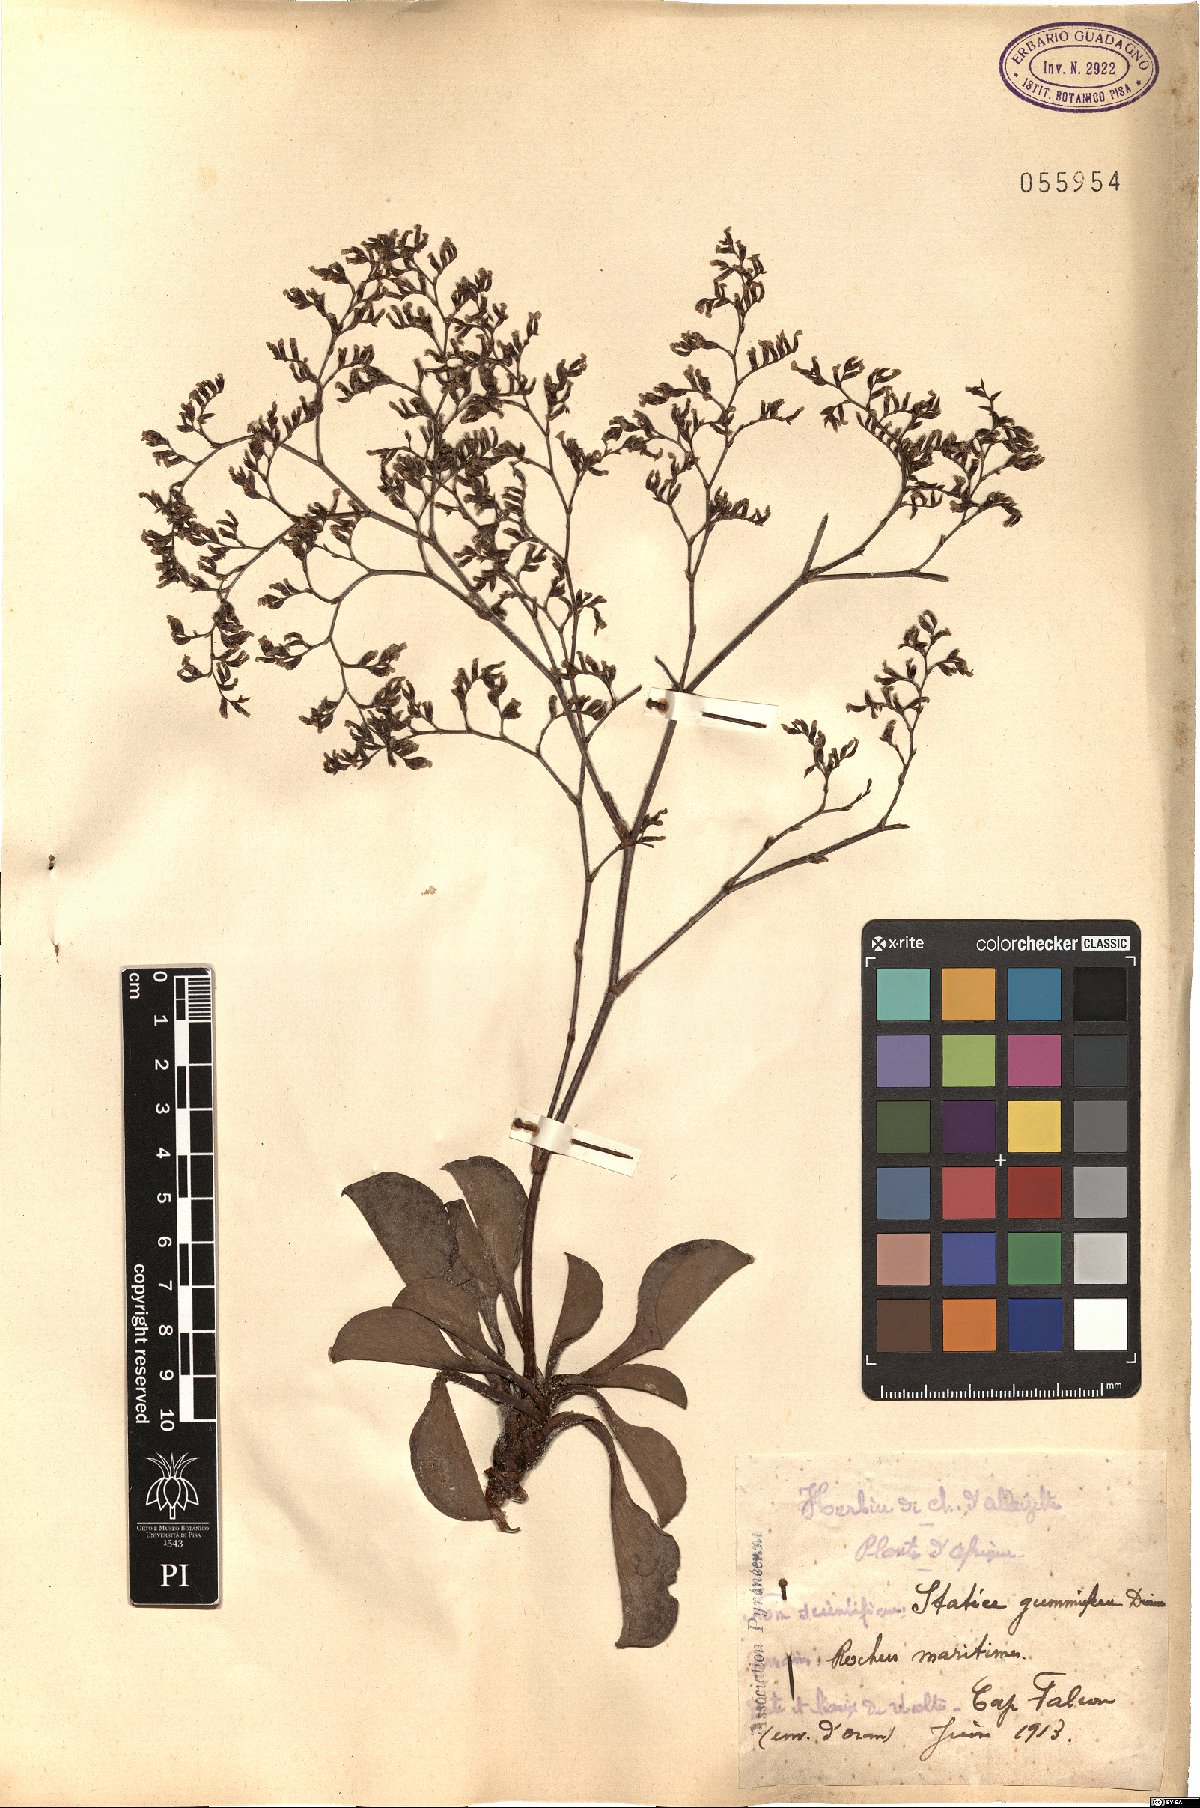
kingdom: Plantae
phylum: Tracheophyta
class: Magnoliopsida
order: Caryophyllales
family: Plumbaginaceae
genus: Limonium
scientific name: Limonium gummiferum
